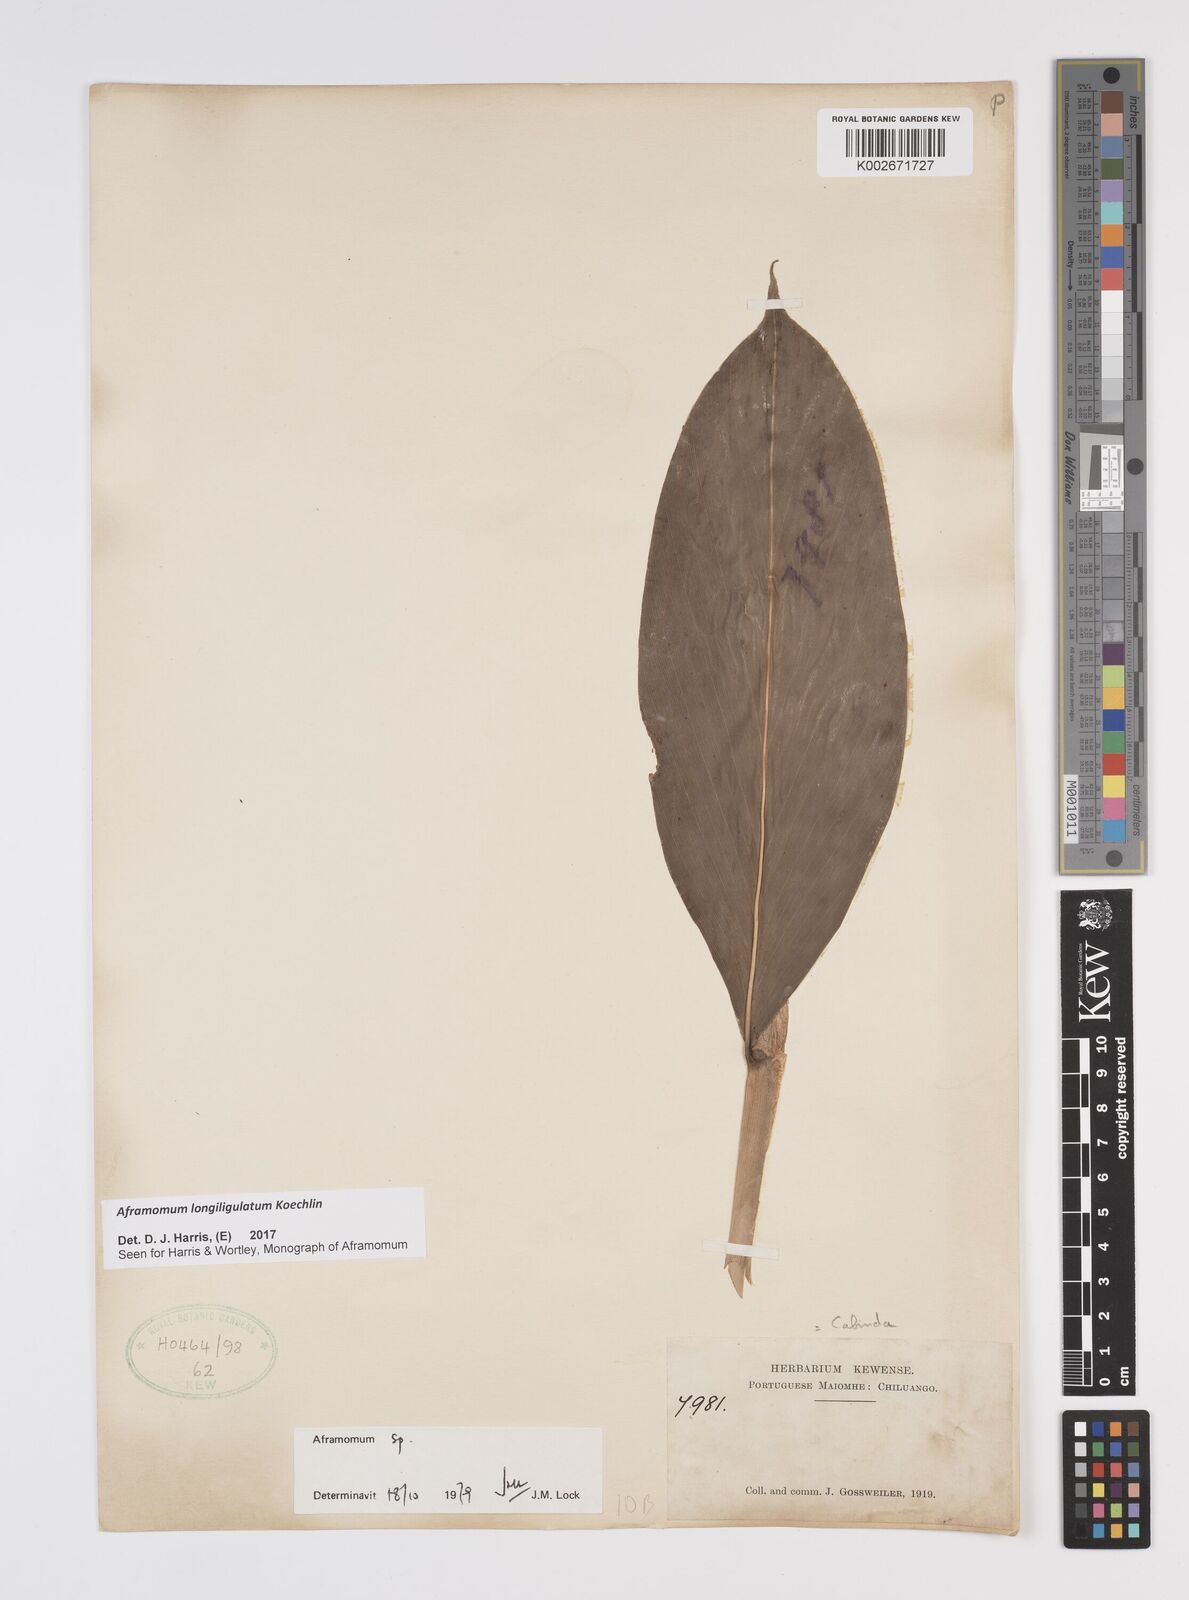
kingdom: Plantae
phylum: Tracheophyta
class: Liliopsida
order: Zingiberales
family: Zingiberaceae
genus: Aframomum
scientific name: Aframomum longiligulatum
